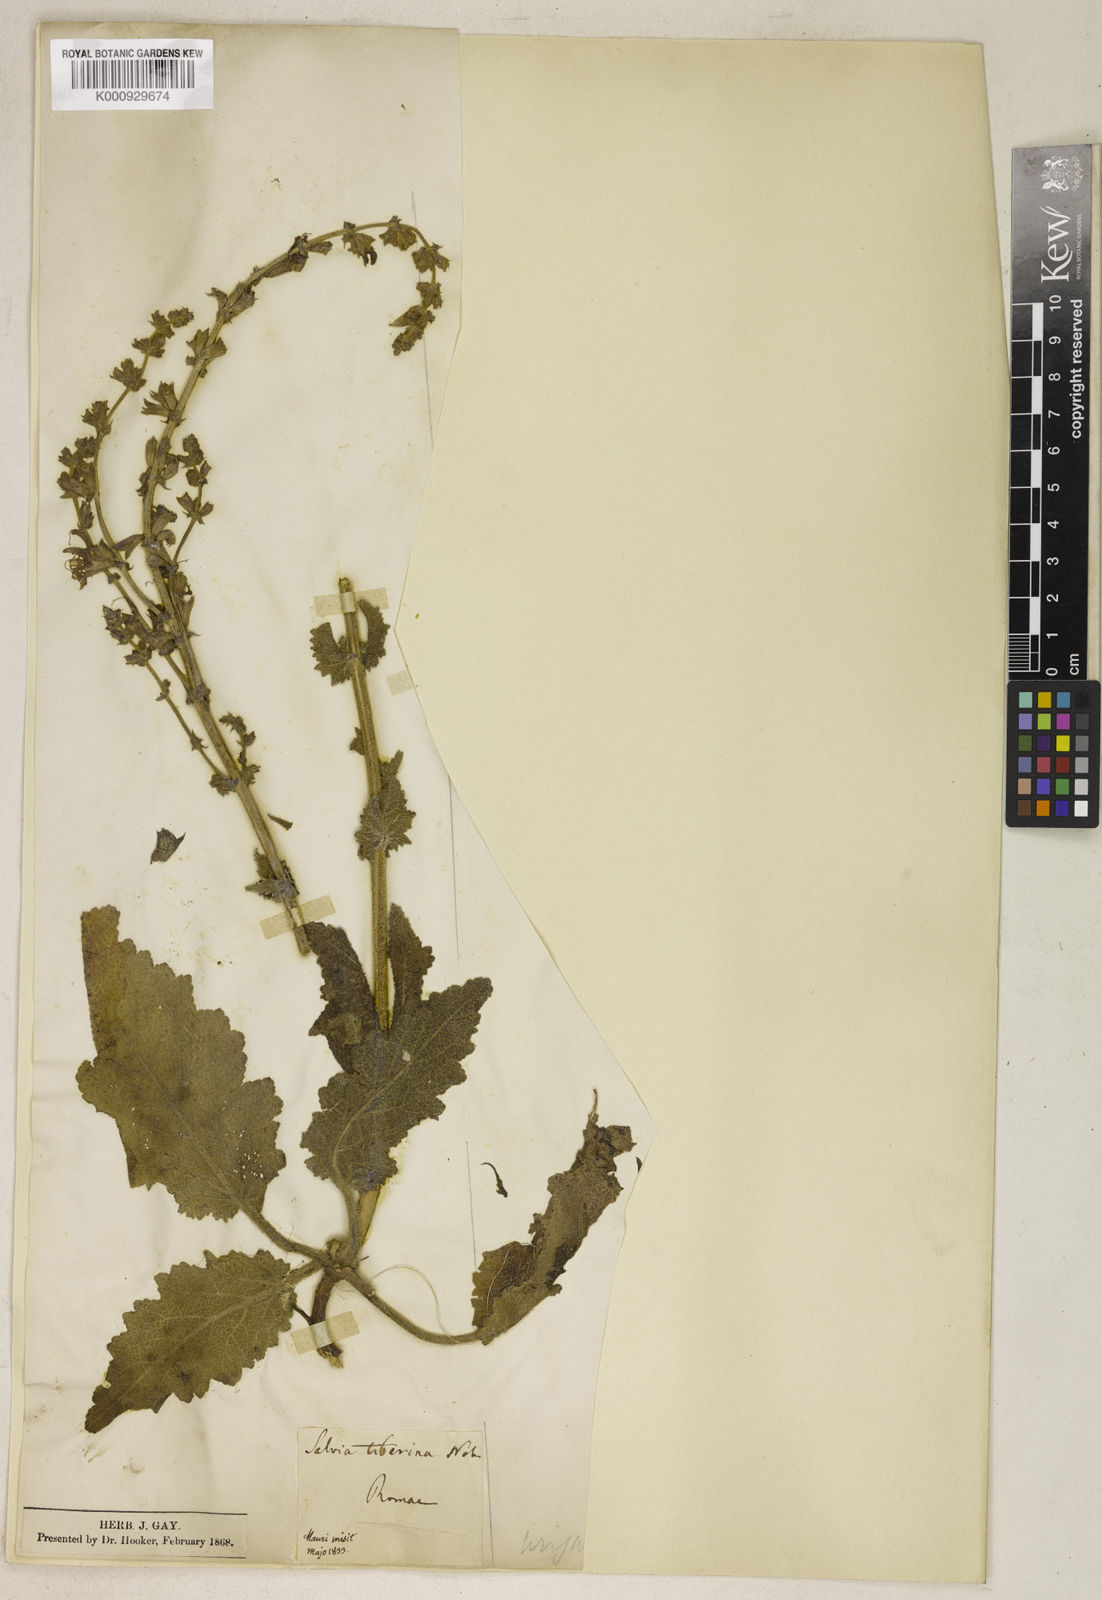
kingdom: Plantae
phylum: Tracheophyta
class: Magnoliopsida
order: Lamiales
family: Lamiaceae
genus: Salvia
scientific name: Salvia farinacea
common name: Mealy sage
